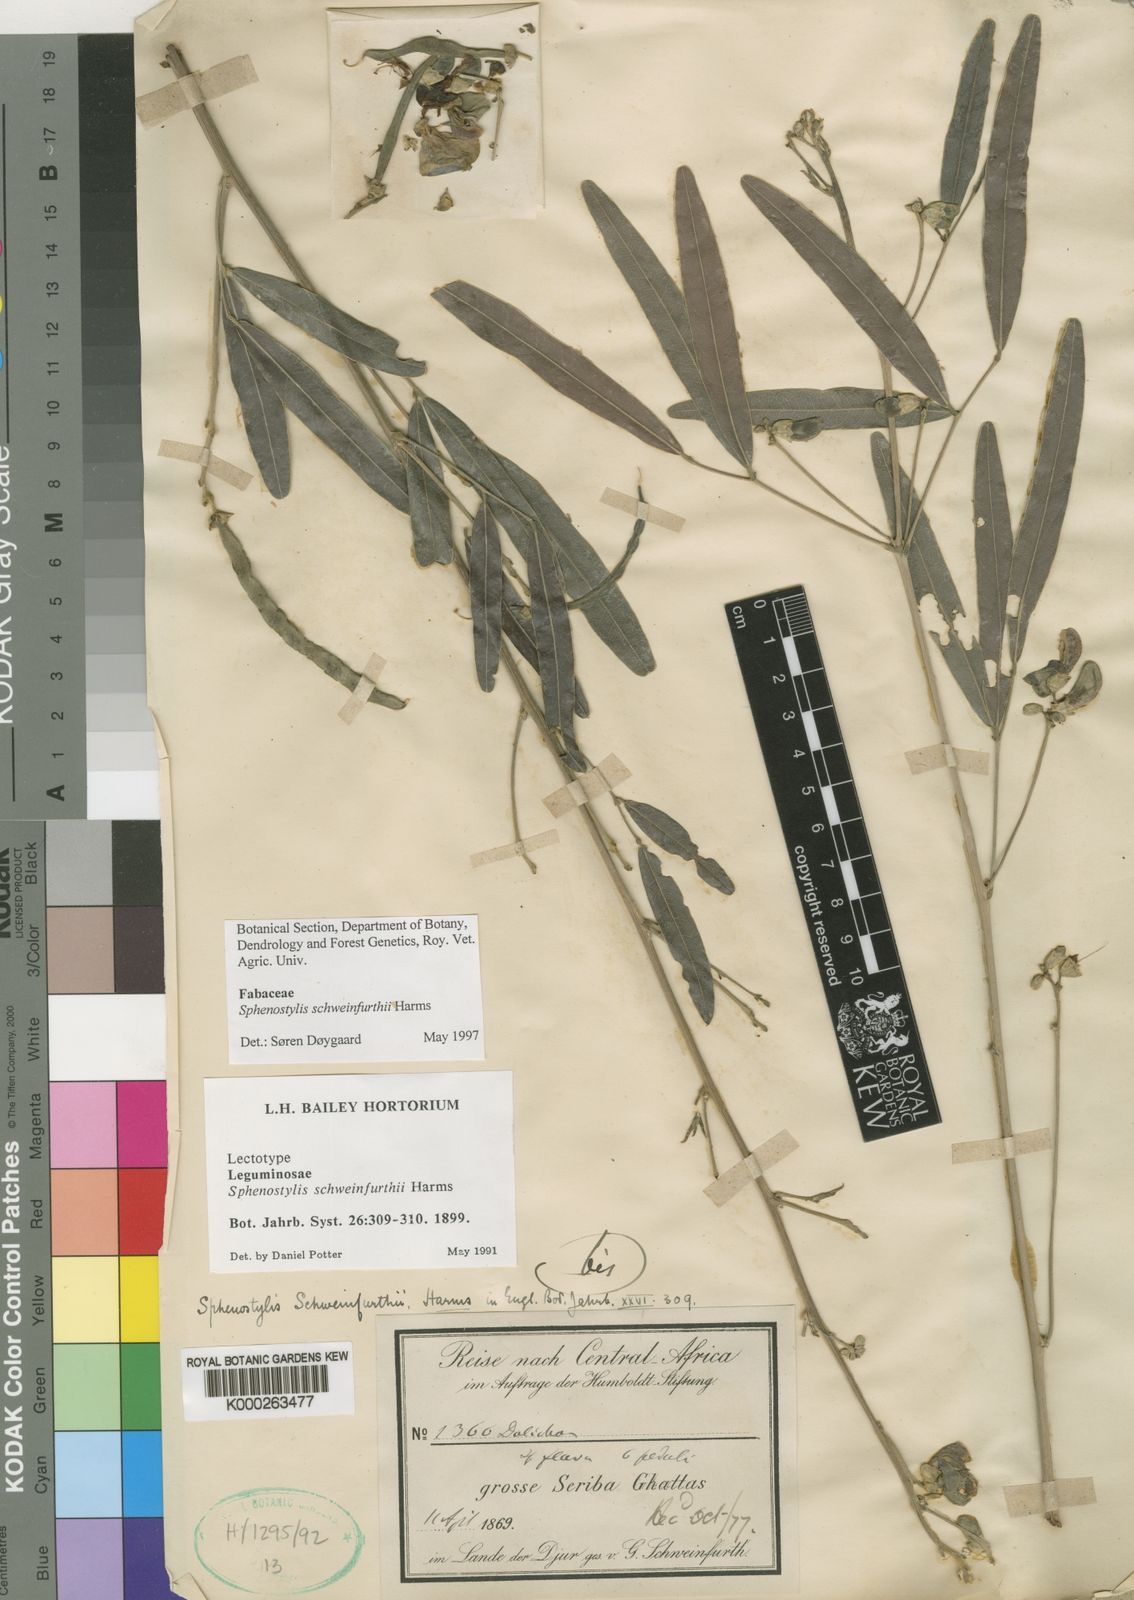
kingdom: Plantae
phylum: Tracheophyta
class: Magnoliopsida
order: Fabales
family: Fabaceae
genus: Sphenostylis
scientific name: Sphenostylis schweinfurthii
